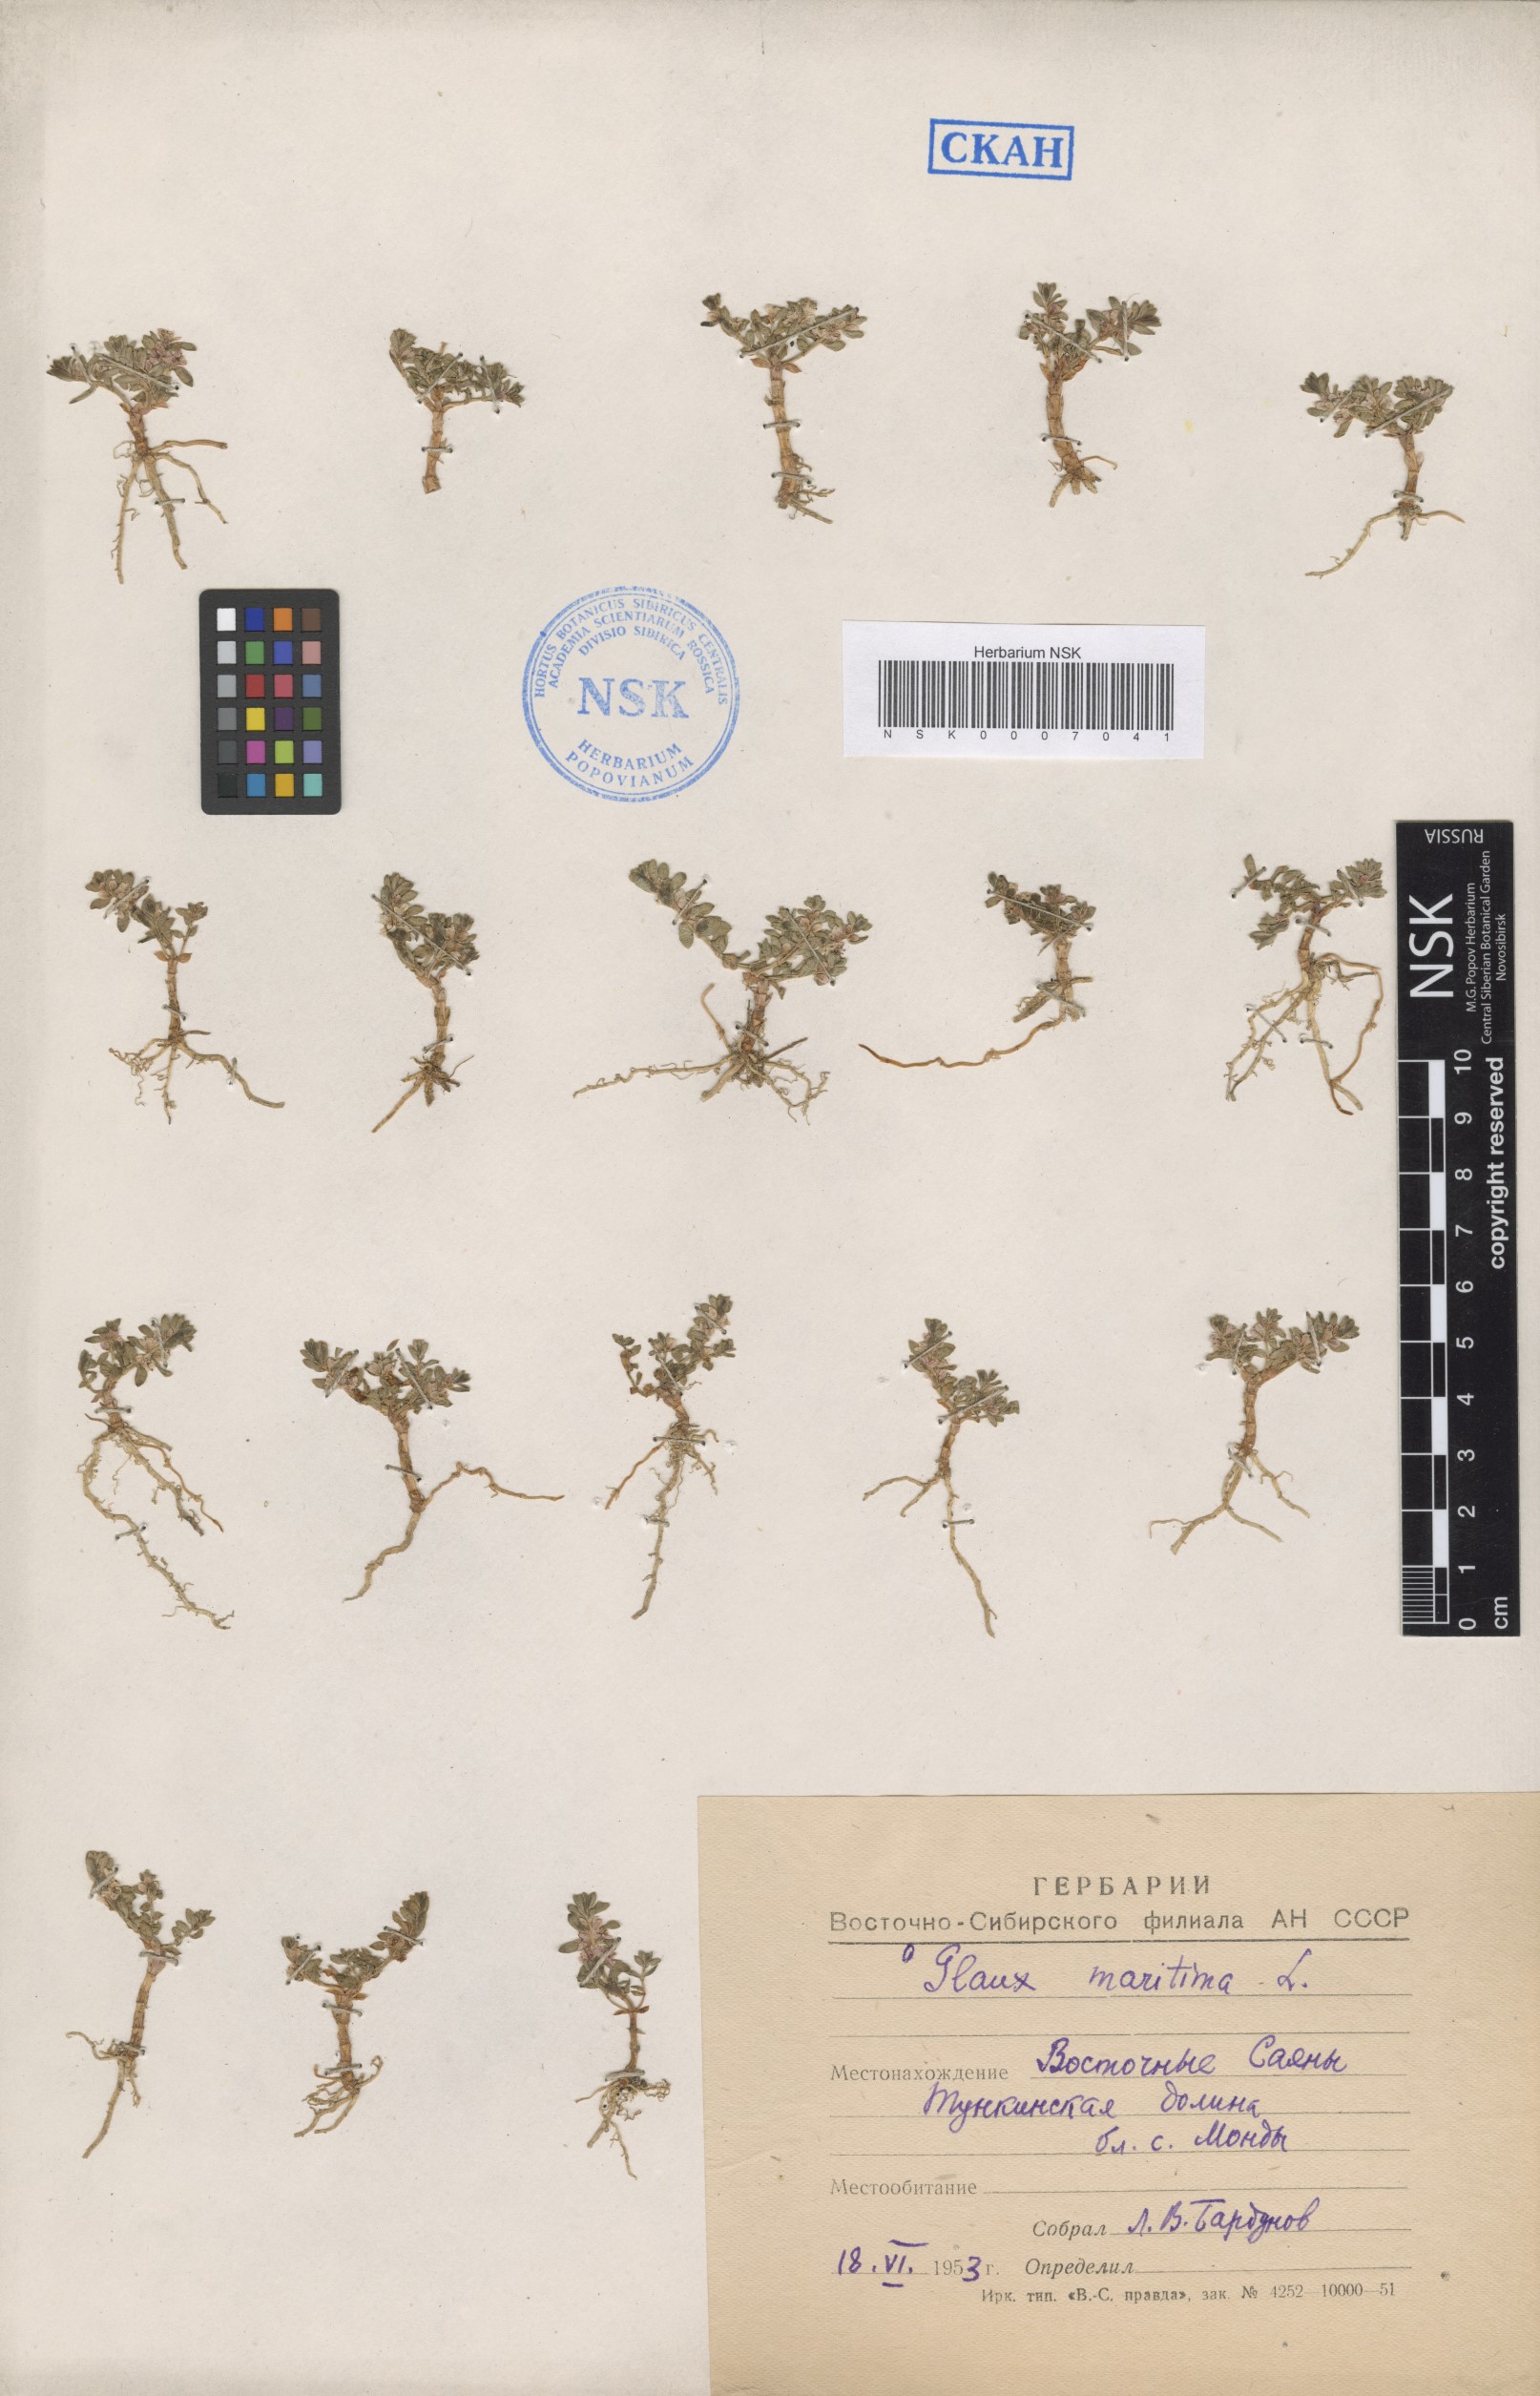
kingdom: Plantae
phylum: Tracheophyta
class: Magnoliopsida
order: Ericales
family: Primulaceae
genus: Lysimachia
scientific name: Lysimachia maritima
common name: Sea milkwort
